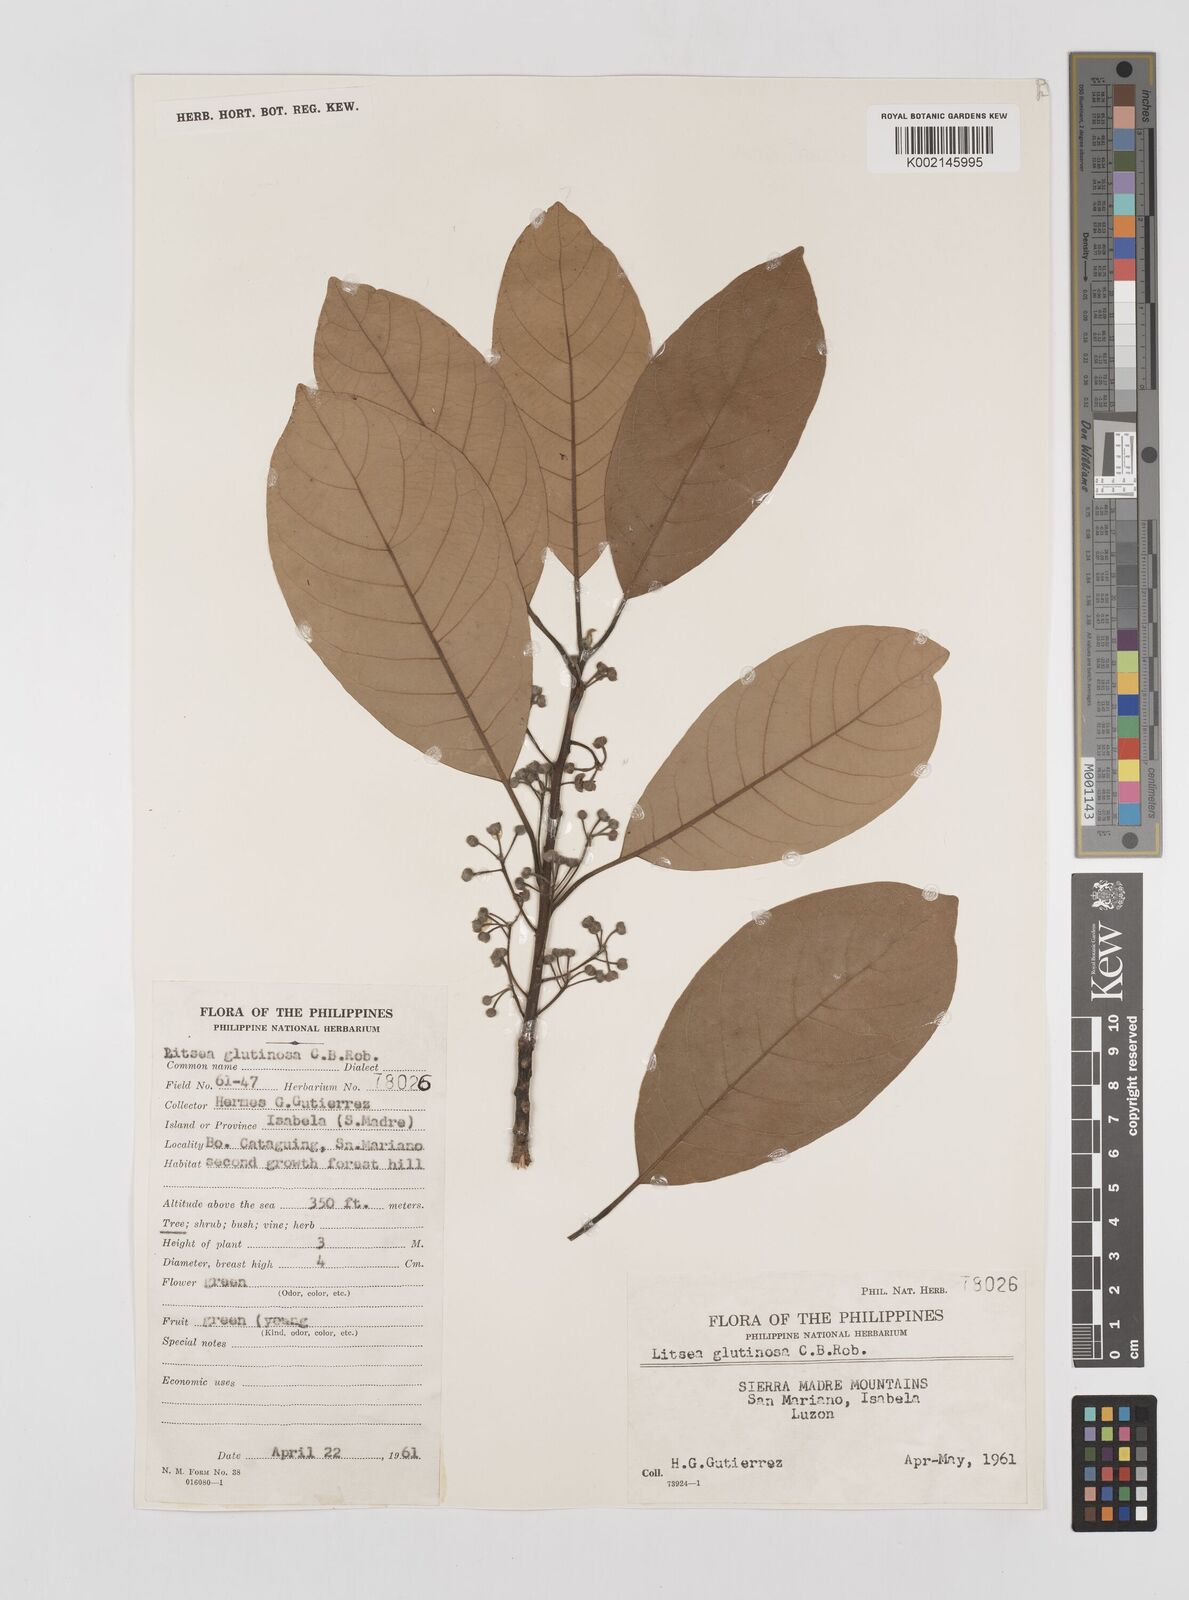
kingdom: Plantae
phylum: Tracheophyta
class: Magnoliopsida
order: Laurales
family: Lauraceae
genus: Litsea
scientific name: Litsea glutinosa
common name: Indian-laurel
